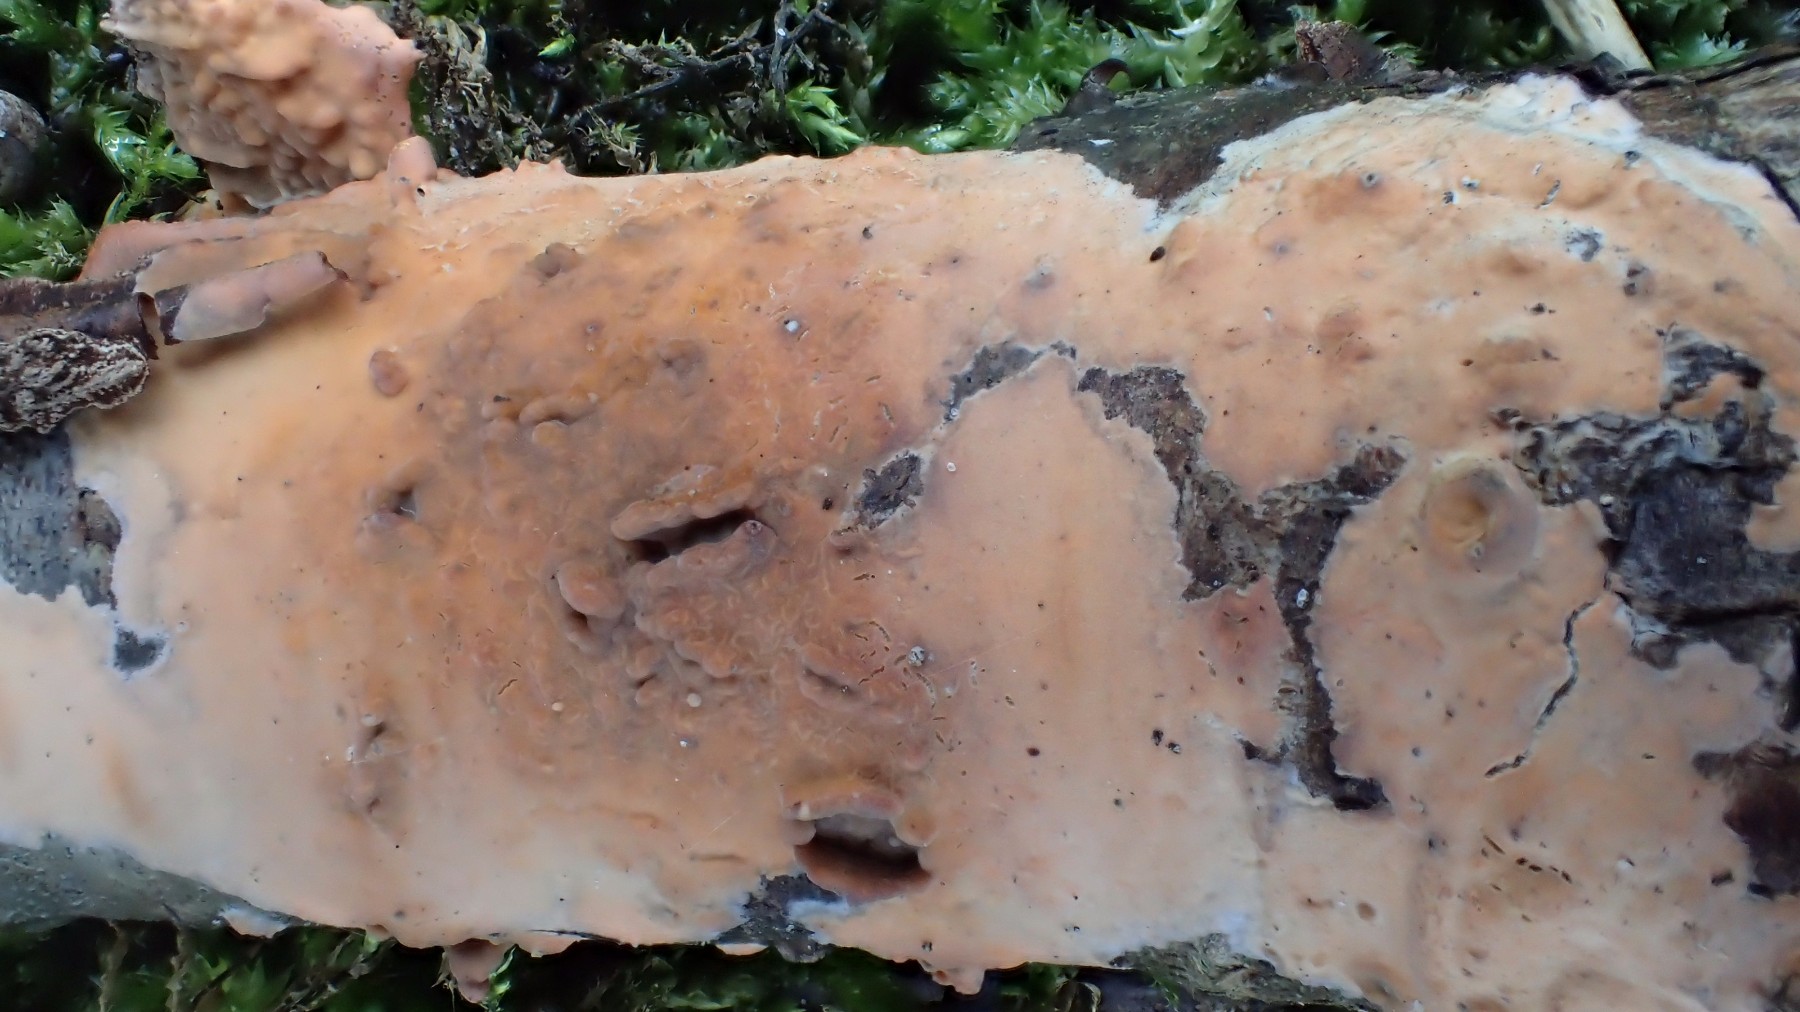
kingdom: Fungi
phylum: Basidiomycota
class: Agaricomycetes
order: Russulales
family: Peniophoraceae
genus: Peniophora
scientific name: Peniophora incarnata
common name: laksefarvet voksskind
